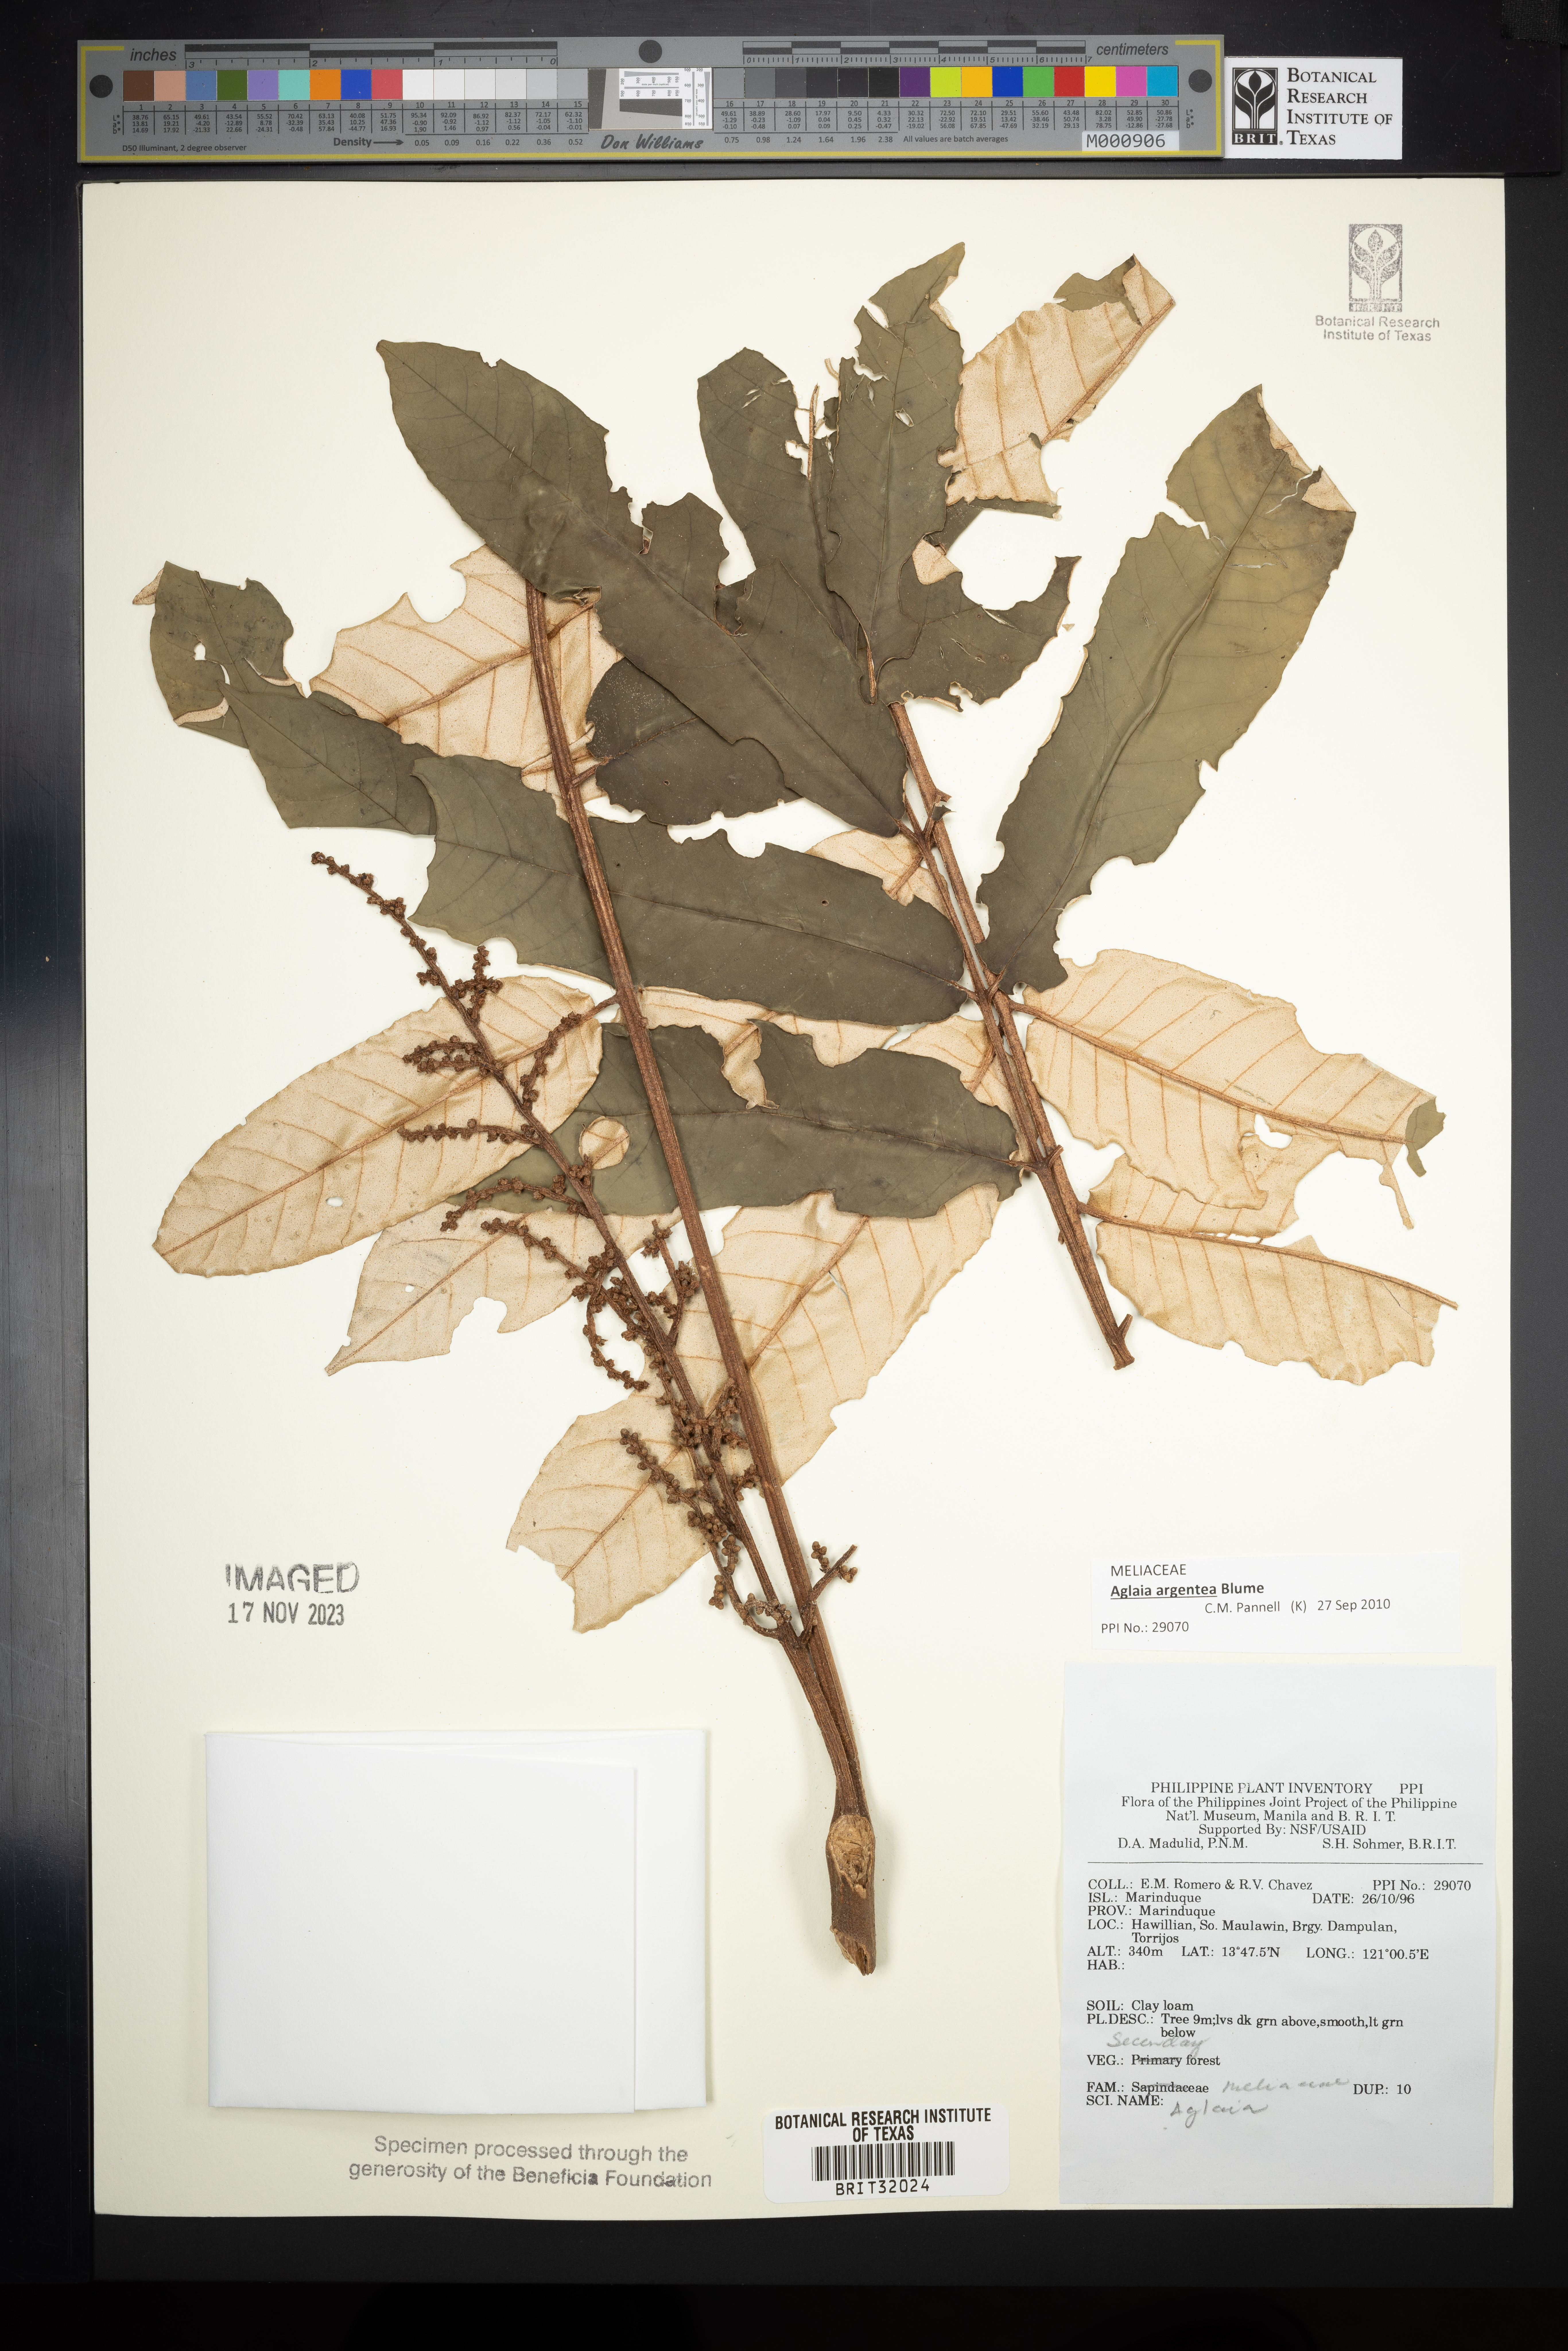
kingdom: Plantae
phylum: Tracheophyta
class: Magnoliopsida
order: Sapindales
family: Meliaceae
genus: Aglaia
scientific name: Aglaia
